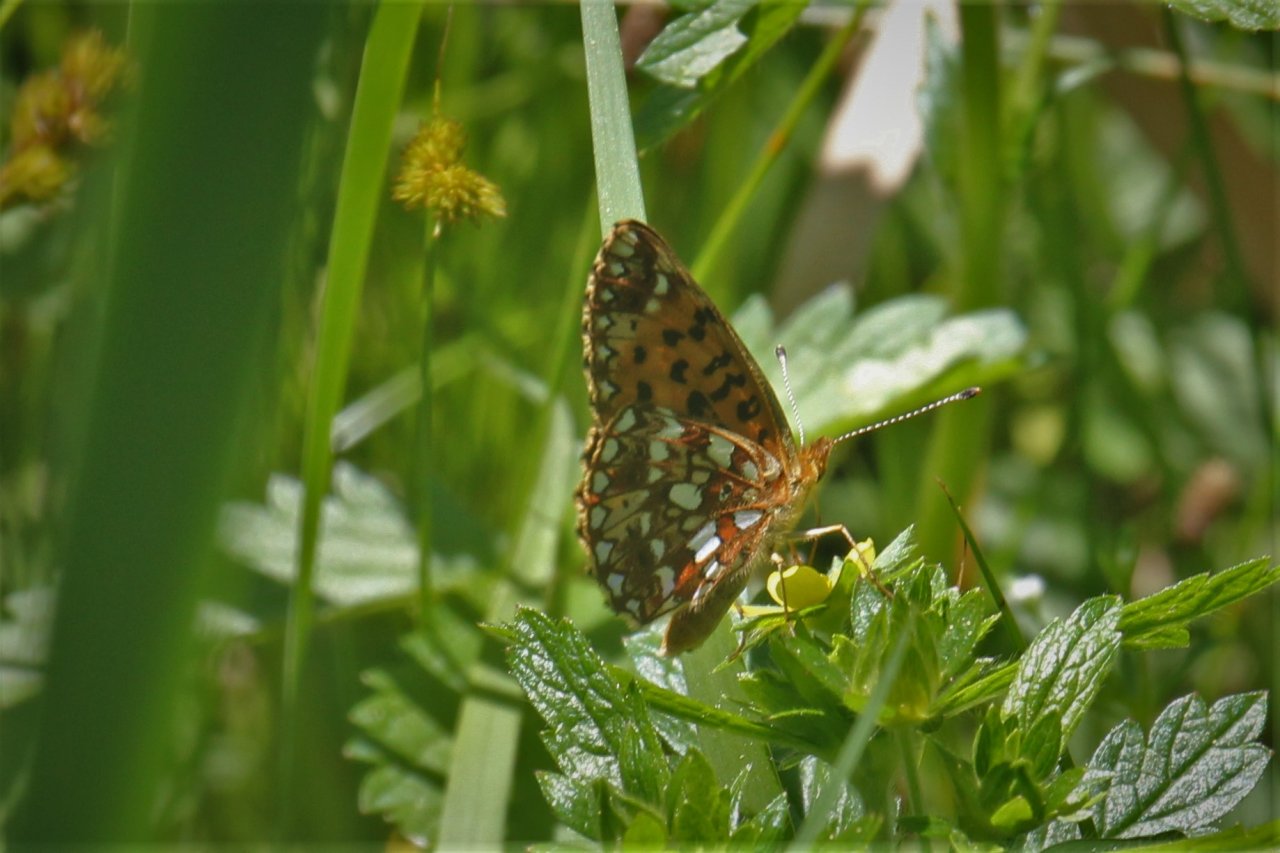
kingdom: Animalia
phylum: Arthropoda
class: Insecta
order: Lepidoptera
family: Nymphalidae
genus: Boloria
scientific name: Boloria selene
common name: Silver-bordered Fritillary
